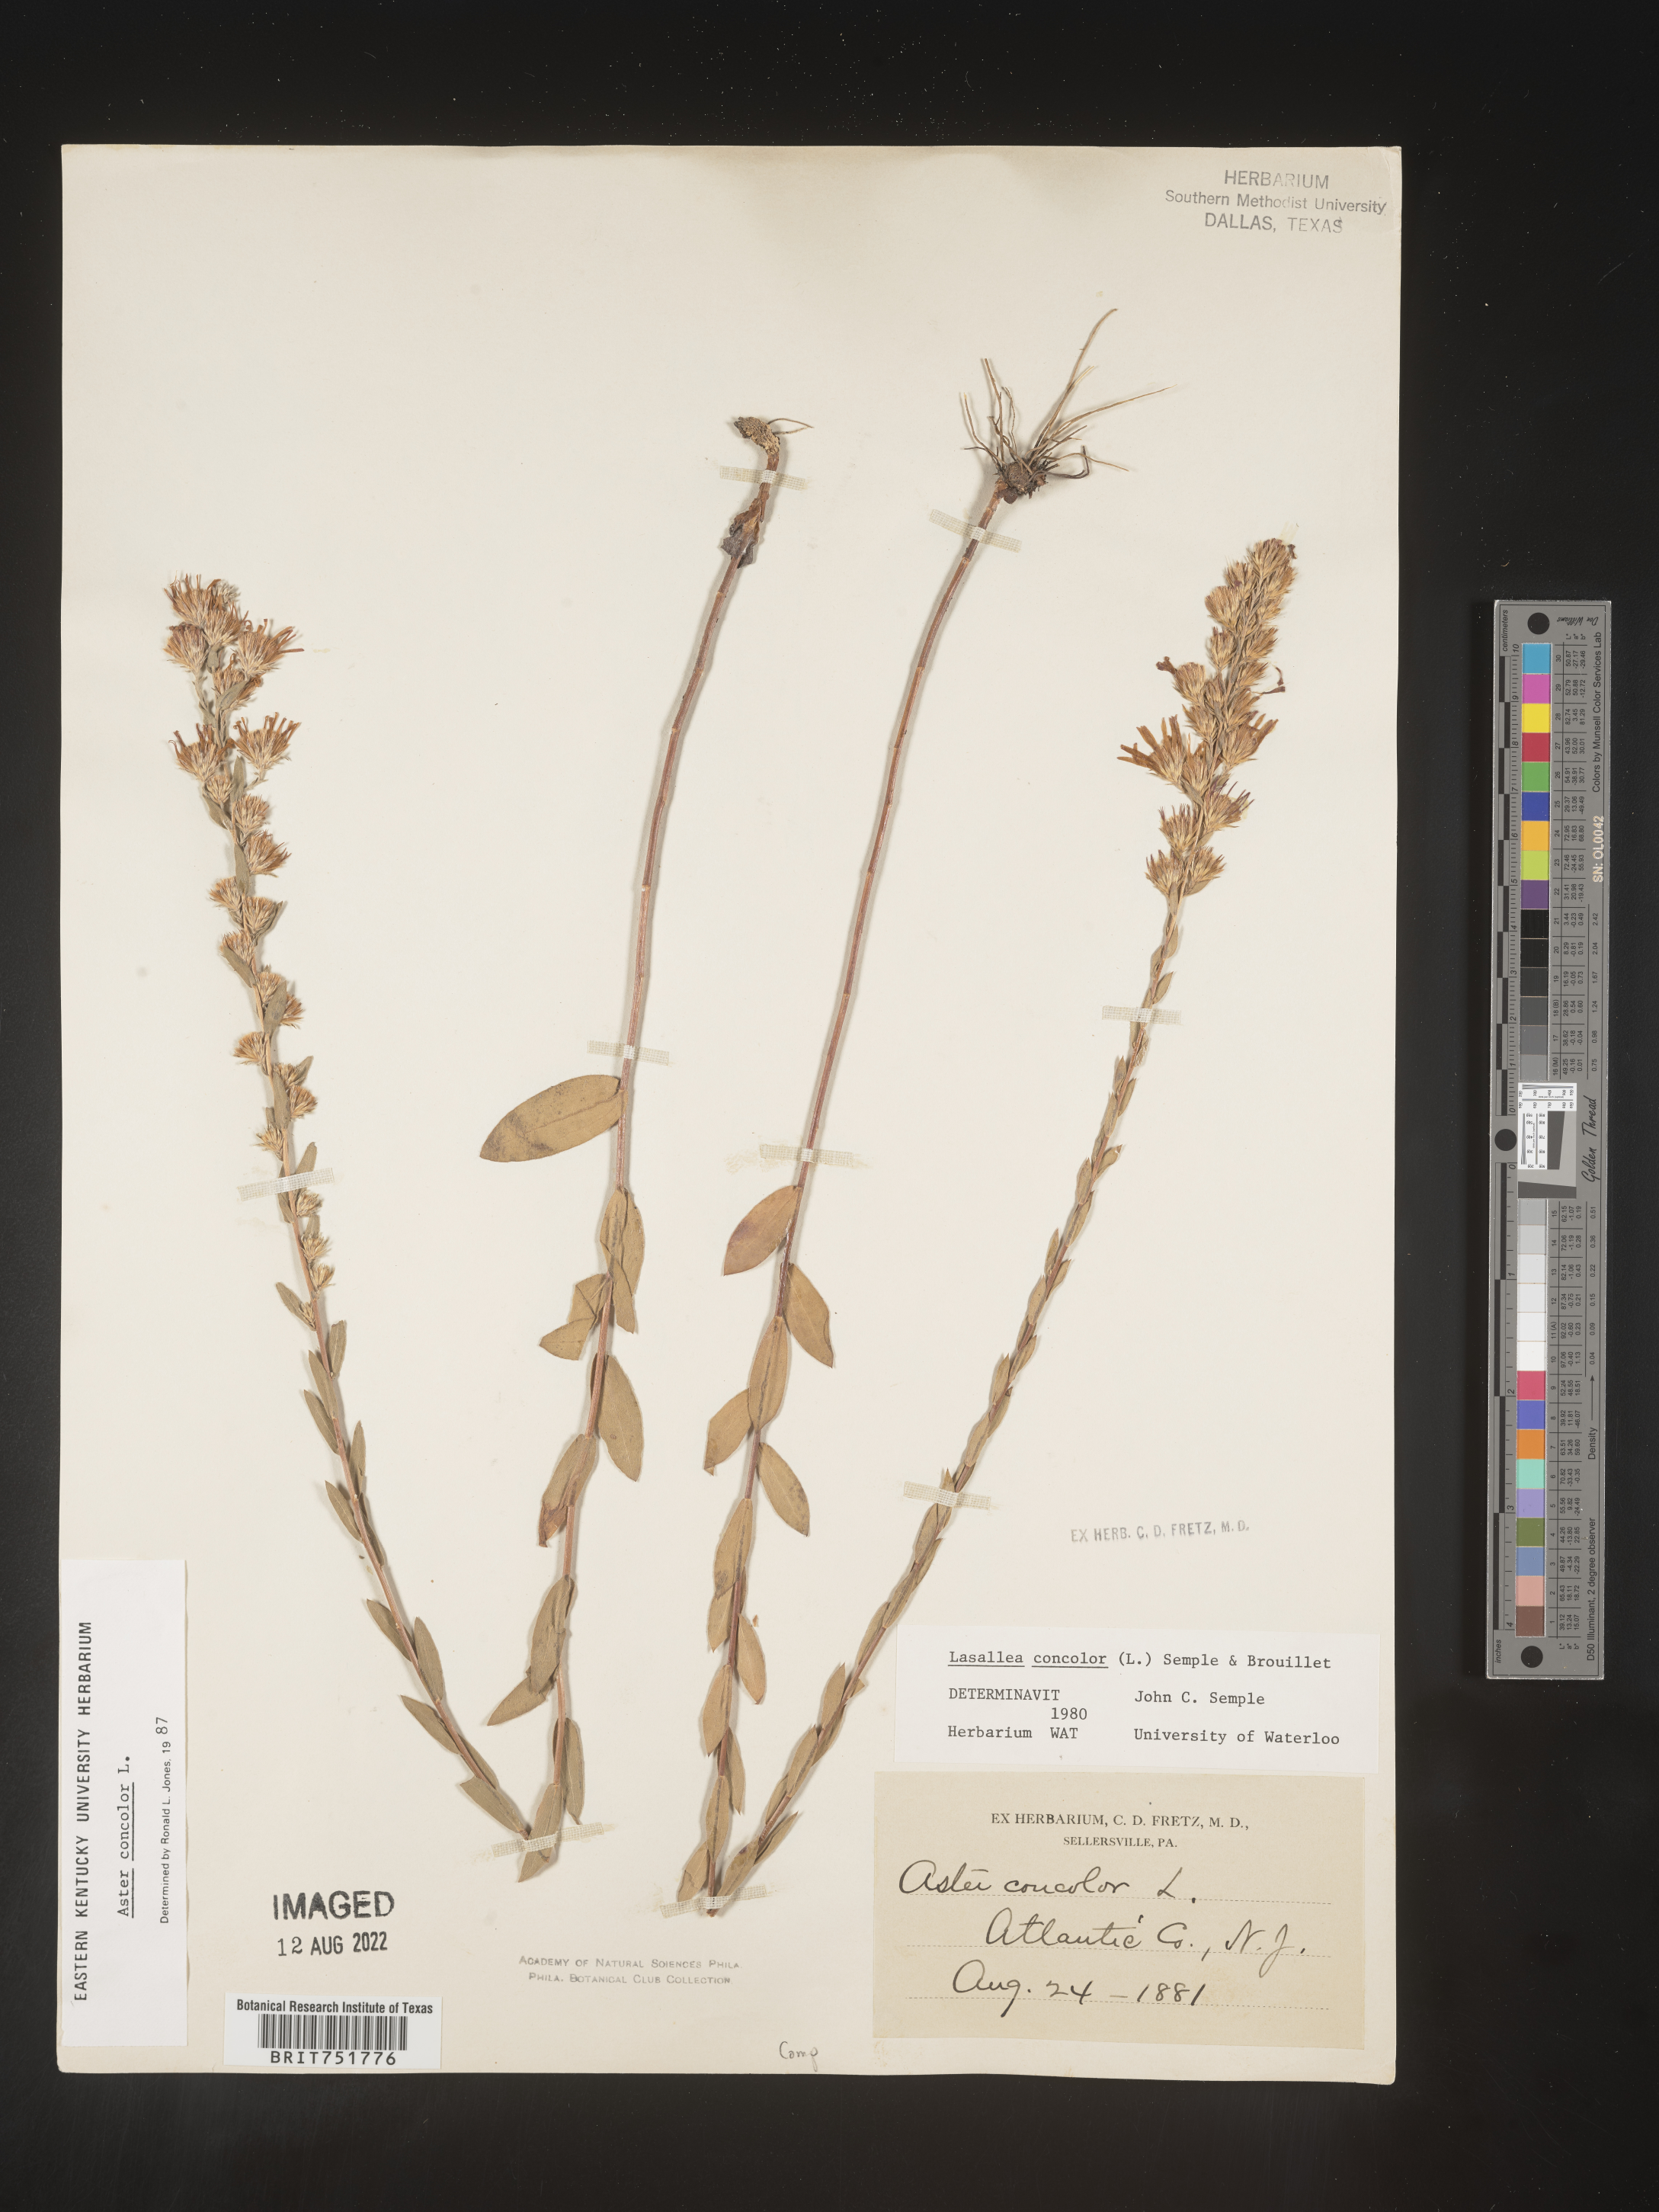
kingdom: Plantae
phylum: Tracheophyta
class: Magnoliopsida
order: Asterales
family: Asteraceae
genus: Symphyotrichum
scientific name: Symphyotrichum concolor
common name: Eastern silver aster
